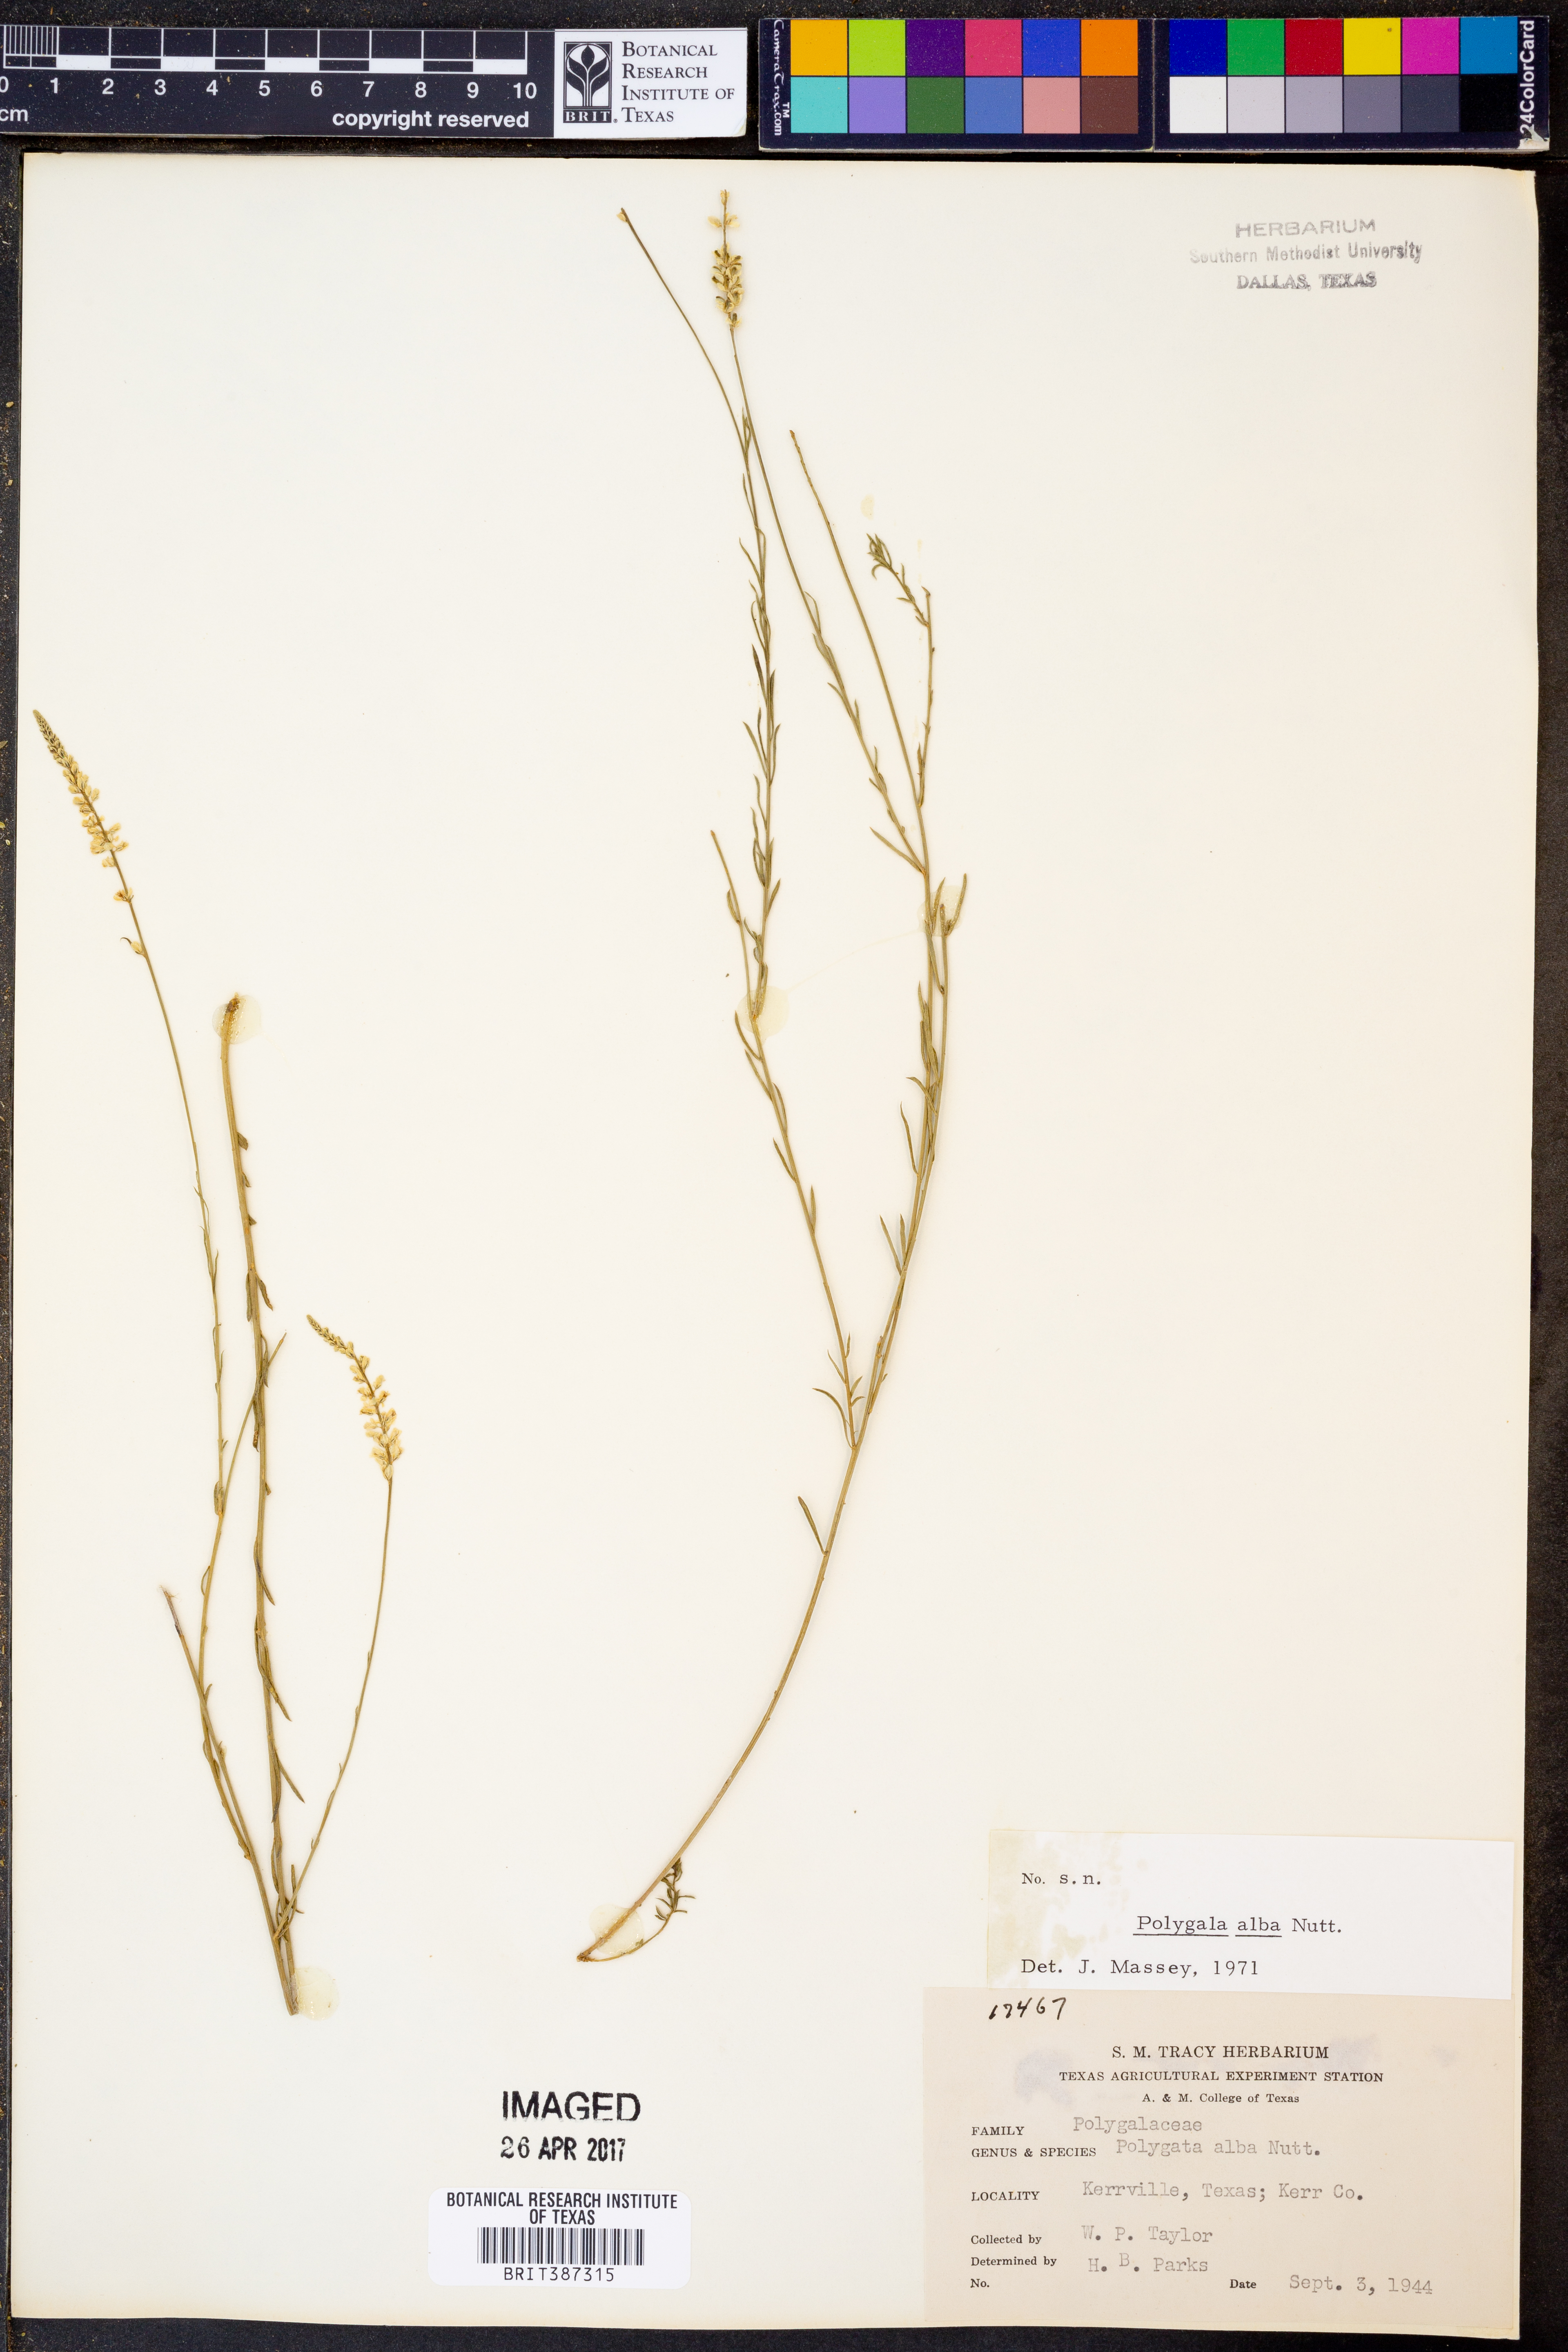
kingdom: Plantae
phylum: Tracheophyta
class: Magnoliopsida
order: Fabales
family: Polygalaceae
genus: Polygala
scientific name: Polygala alba
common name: White milkwort
